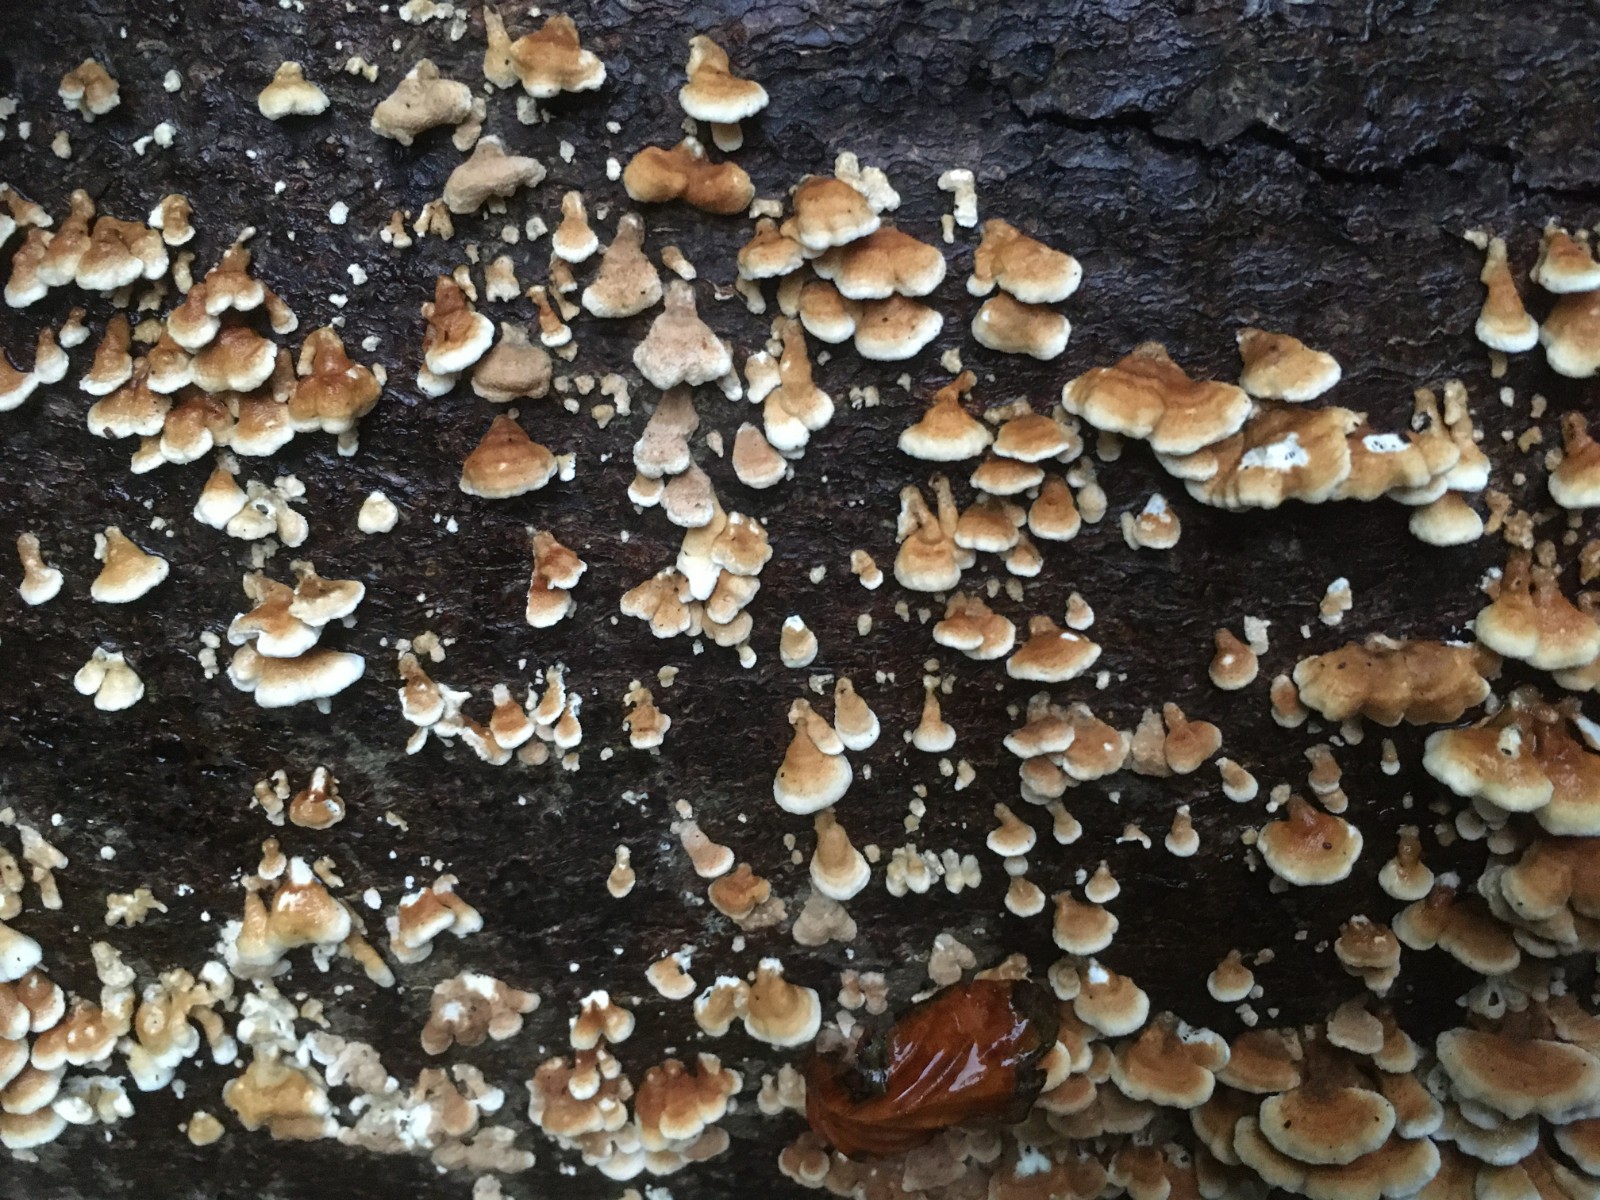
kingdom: Fungi
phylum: Basidiomycota
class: Agaricomycetes
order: Amylocorticiales
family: Amylocorticiaceae
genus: Plicaturopsis
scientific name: Plicaturopsis crispa
